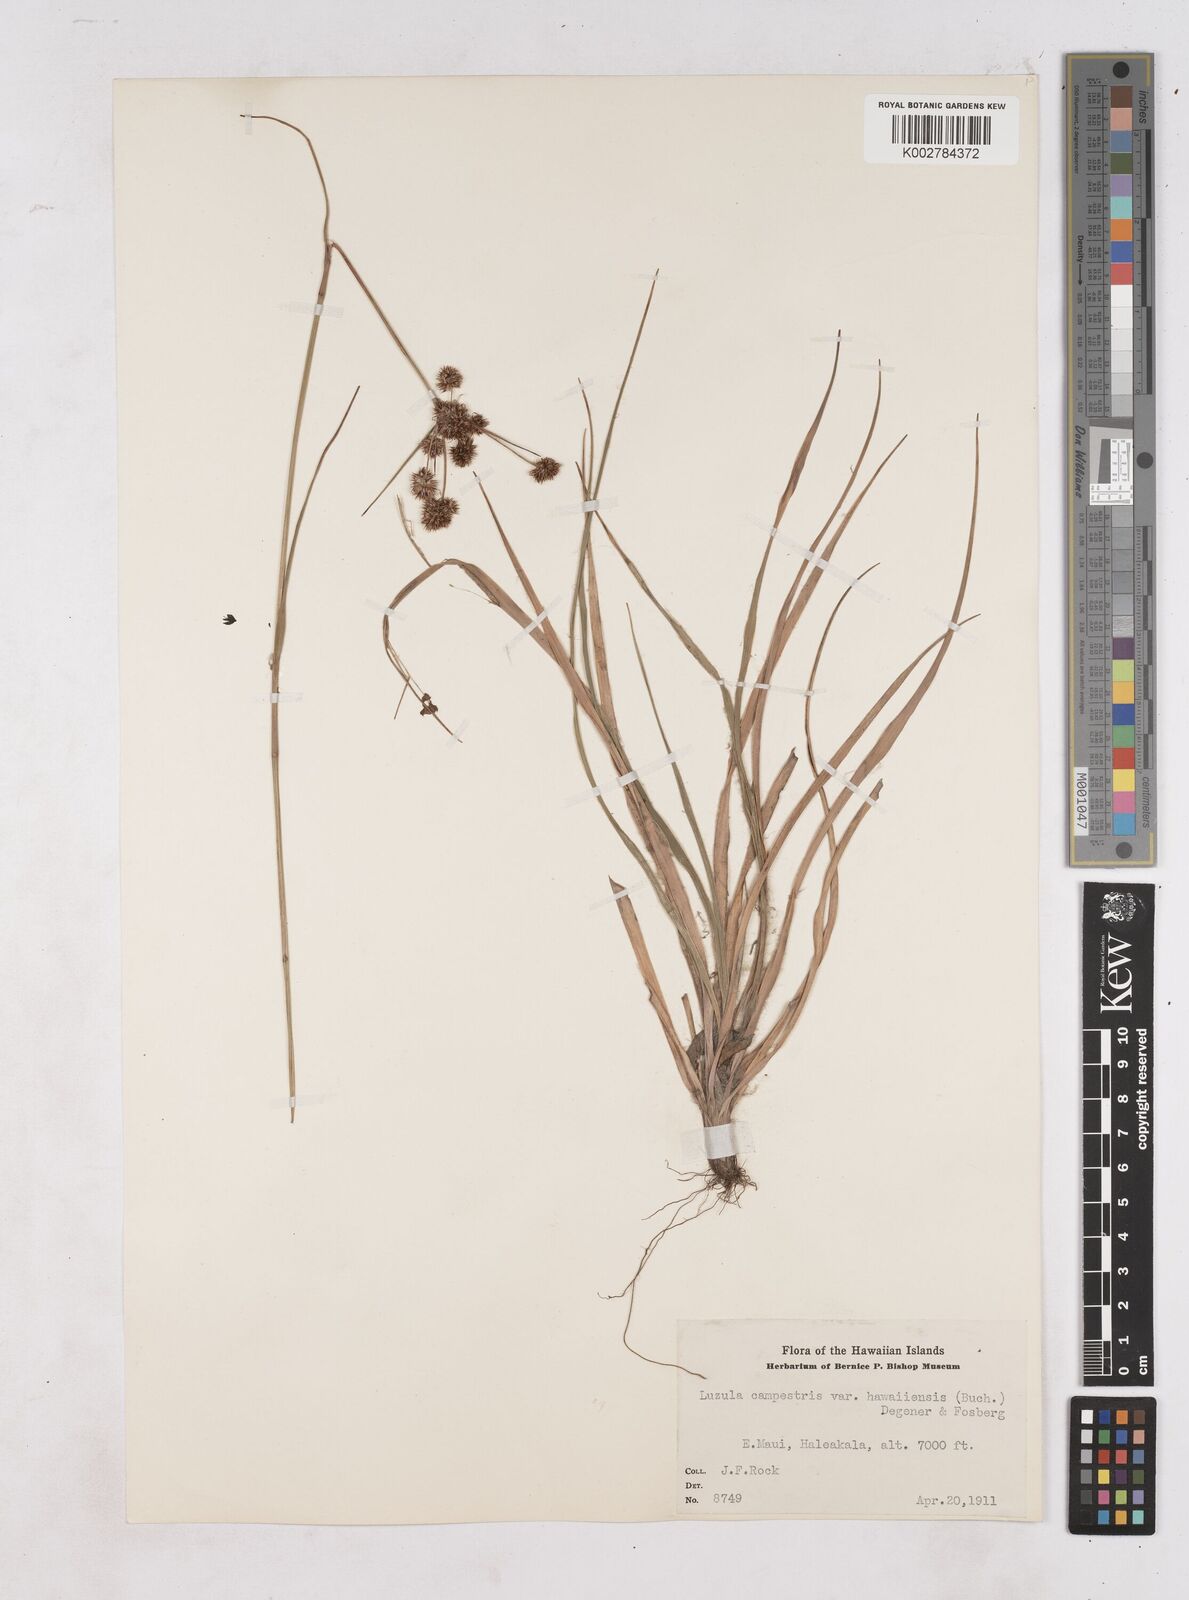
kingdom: Plantae
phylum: Tracheophyta
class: Liliopsida
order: Poales
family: Juncaceae
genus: Luzula
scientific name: Luzula campestris
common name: Field wood-rush
